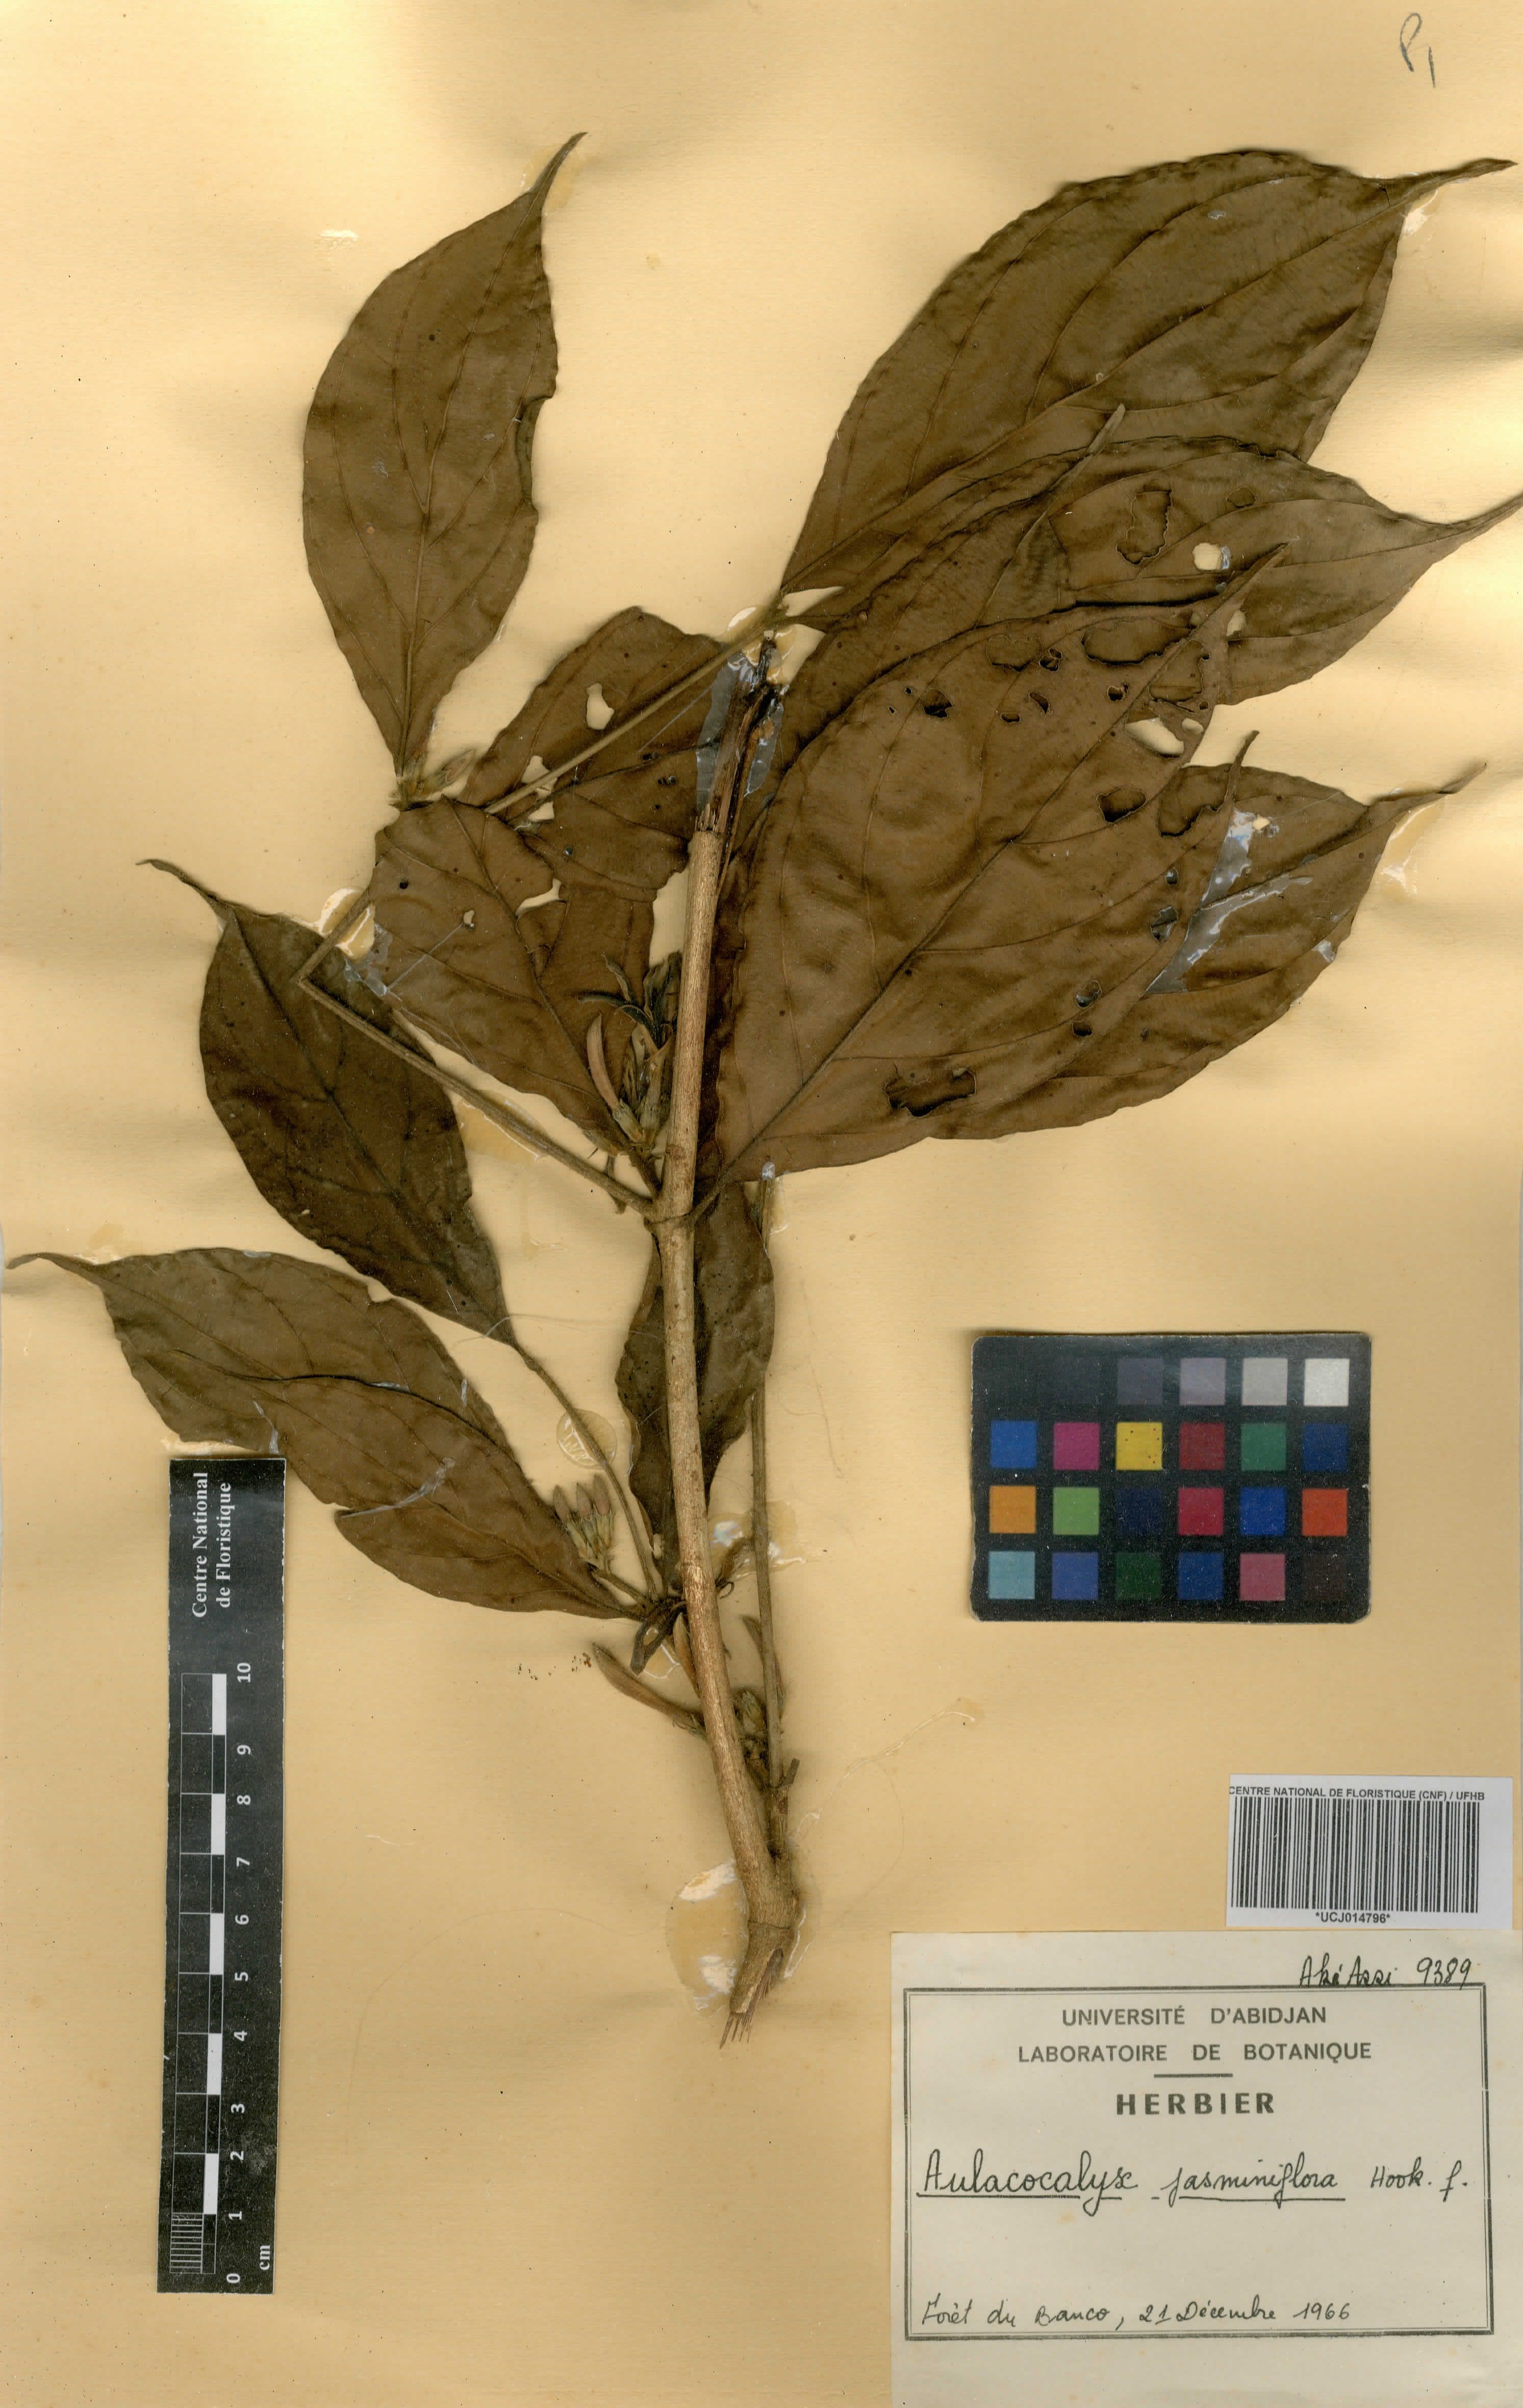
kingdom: Plantae
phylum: Tracheophyta
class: Magnoliopsida
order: Gentianales
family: Rubiaceae
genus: Aulacocalyx
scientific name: Aulacocalyx jasminiflora
